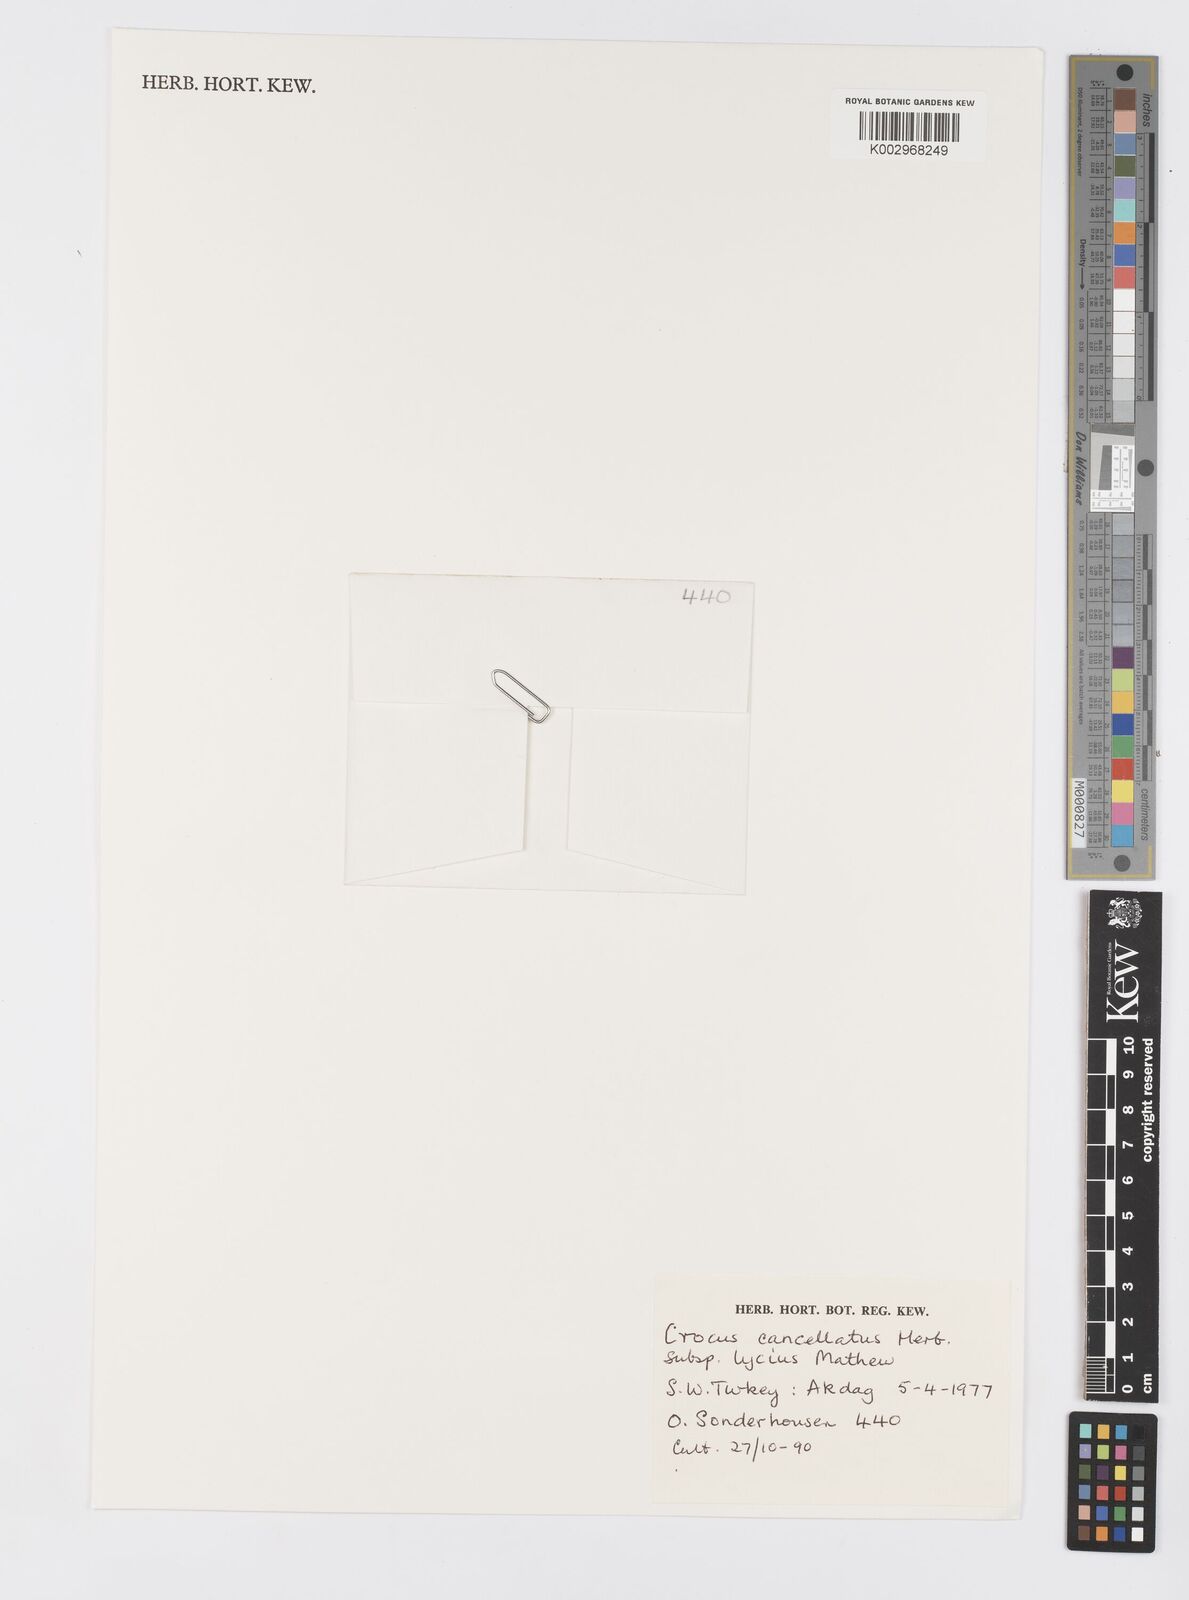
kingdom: Plantae
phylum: Tracheophyta
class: Liliopsida
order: Asparagales
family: Iridaceae
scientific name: Iridaceae
